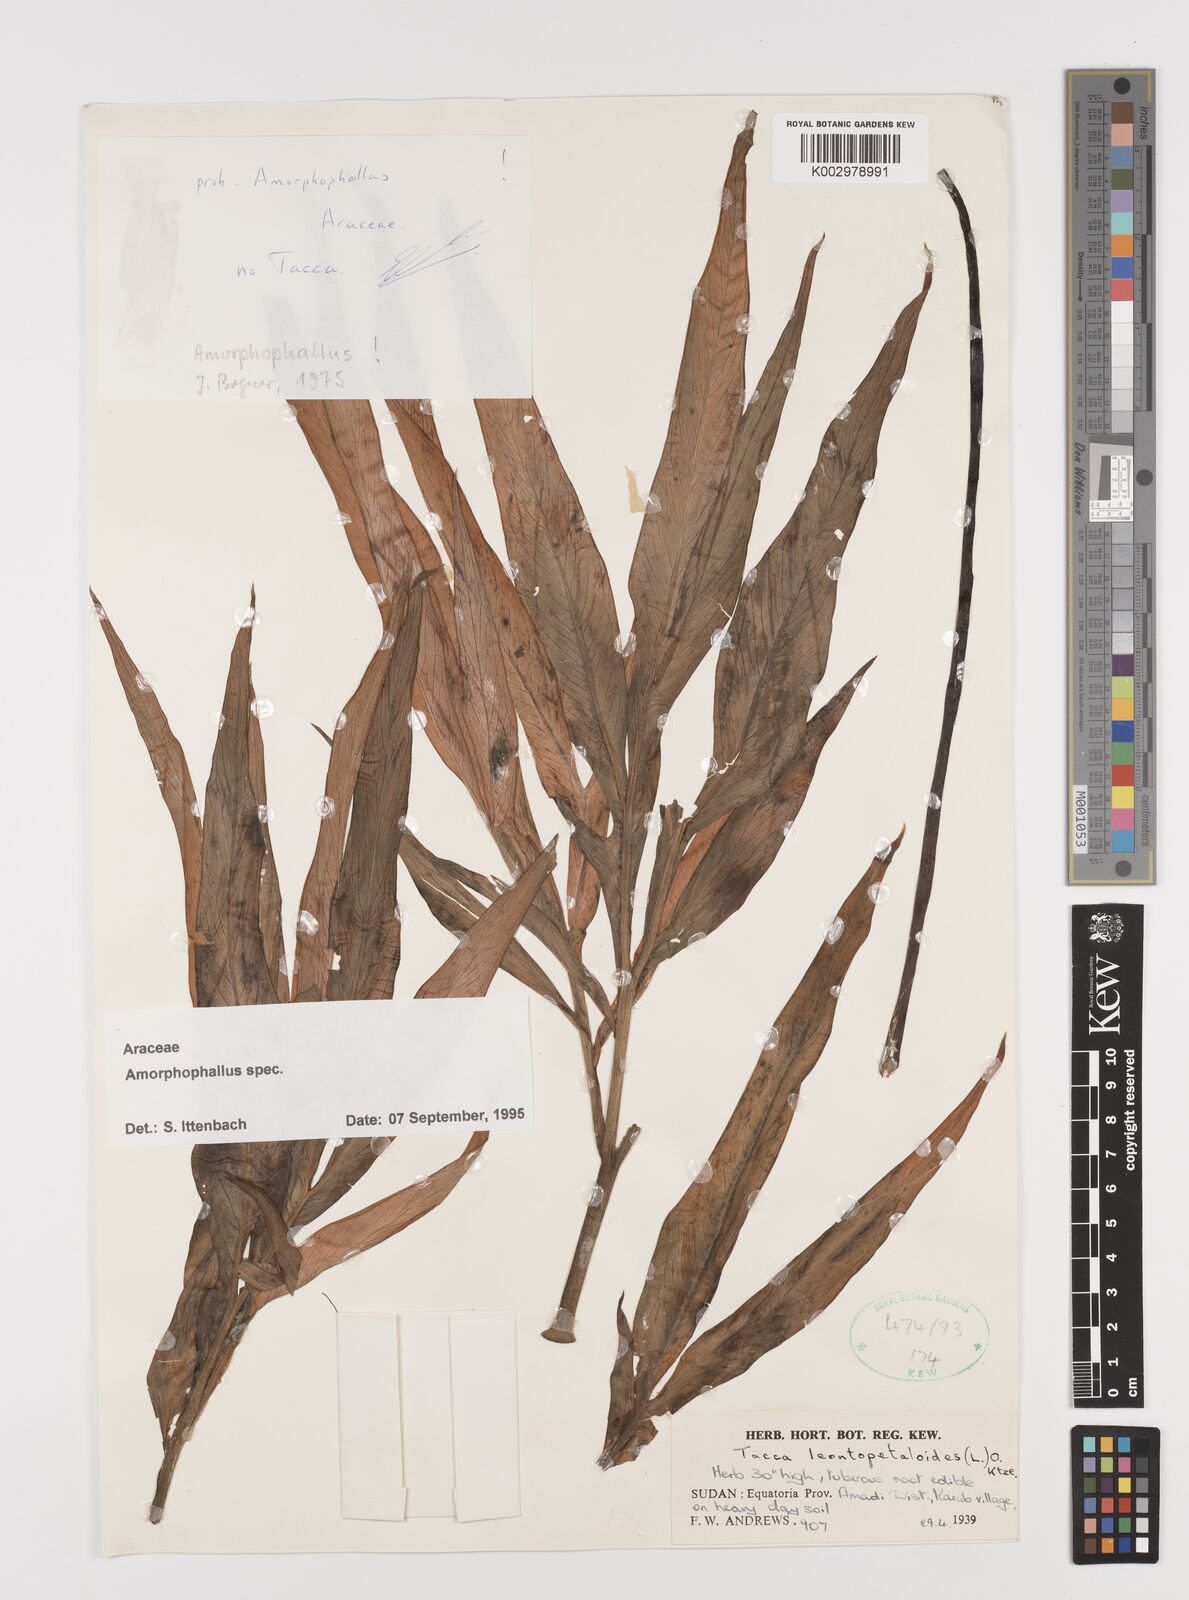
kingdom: Plantae
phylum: Tracheophyta
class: Liliopsida
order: Alismatales
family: Araceae
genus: Amorphophallus
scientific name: Amorphophallus
